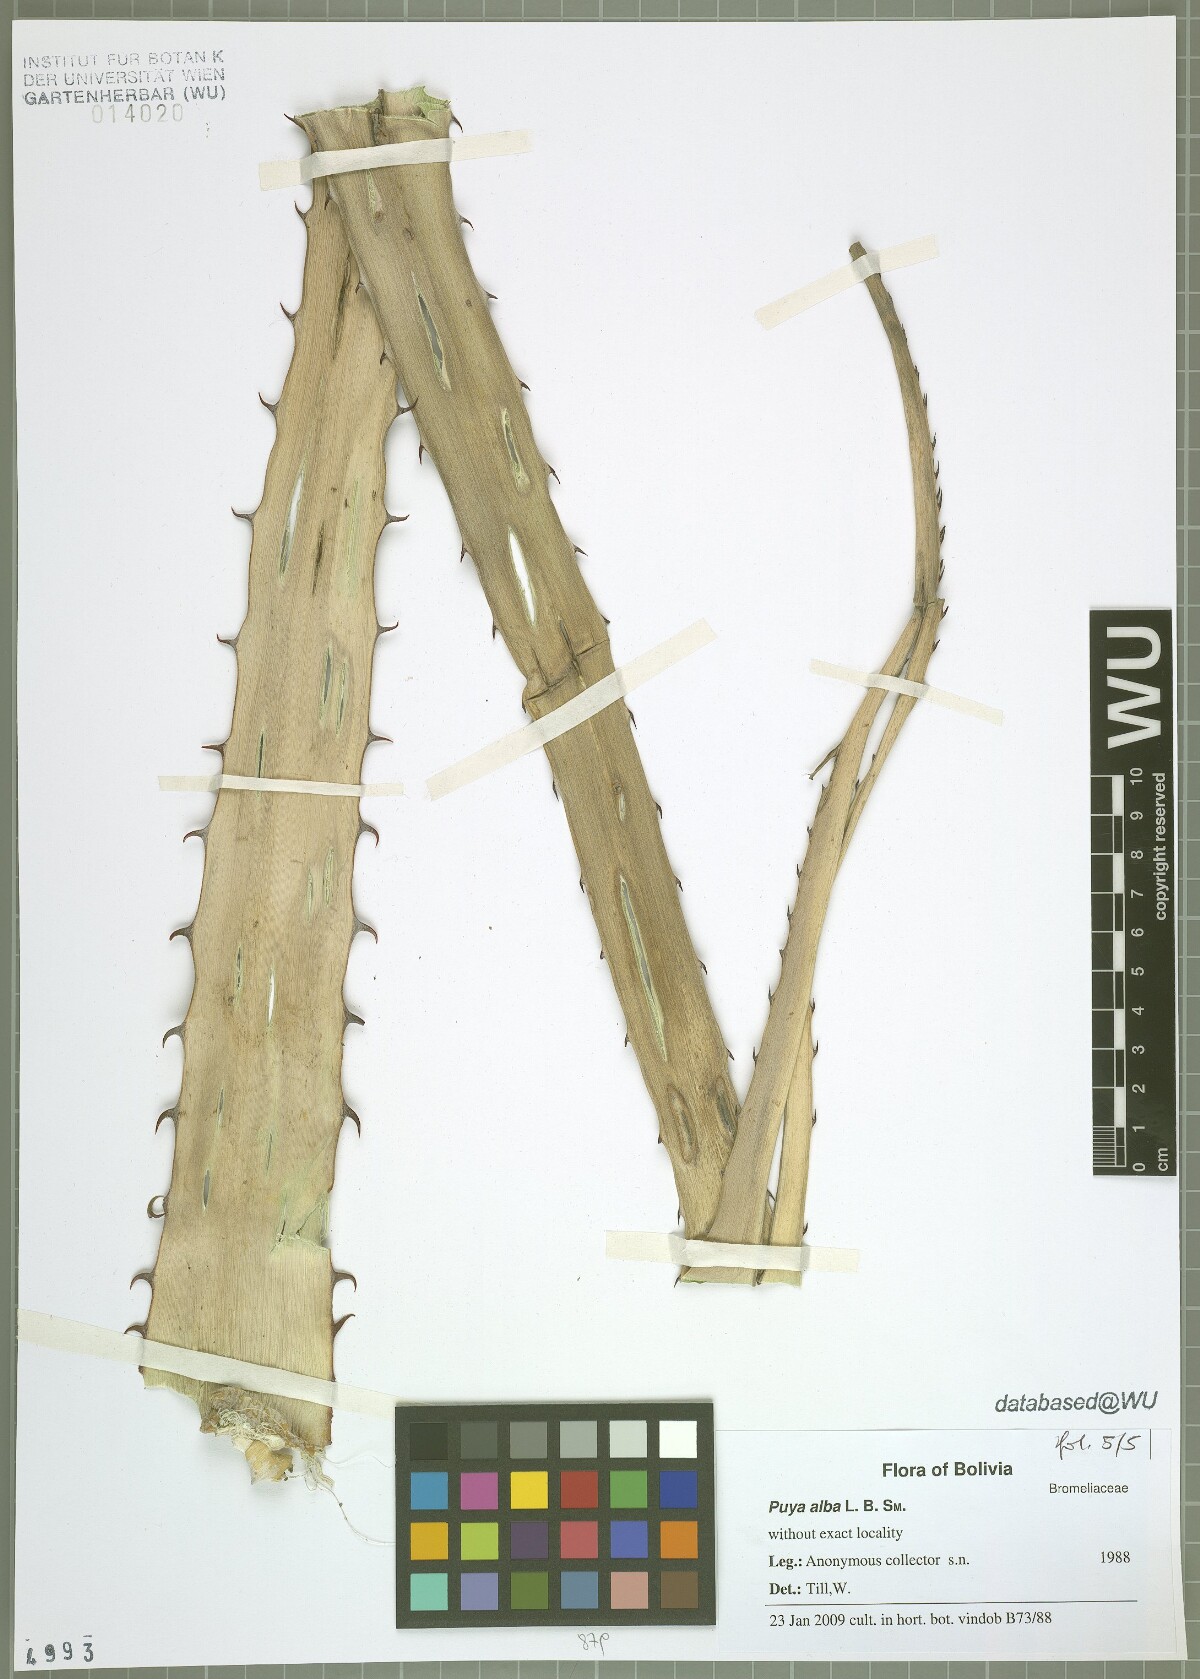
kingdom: Plantae
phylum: Tracheophyta
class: Liliopsida
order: Poales
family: Bromeliaceae
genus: Puya
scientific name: Puya alba
